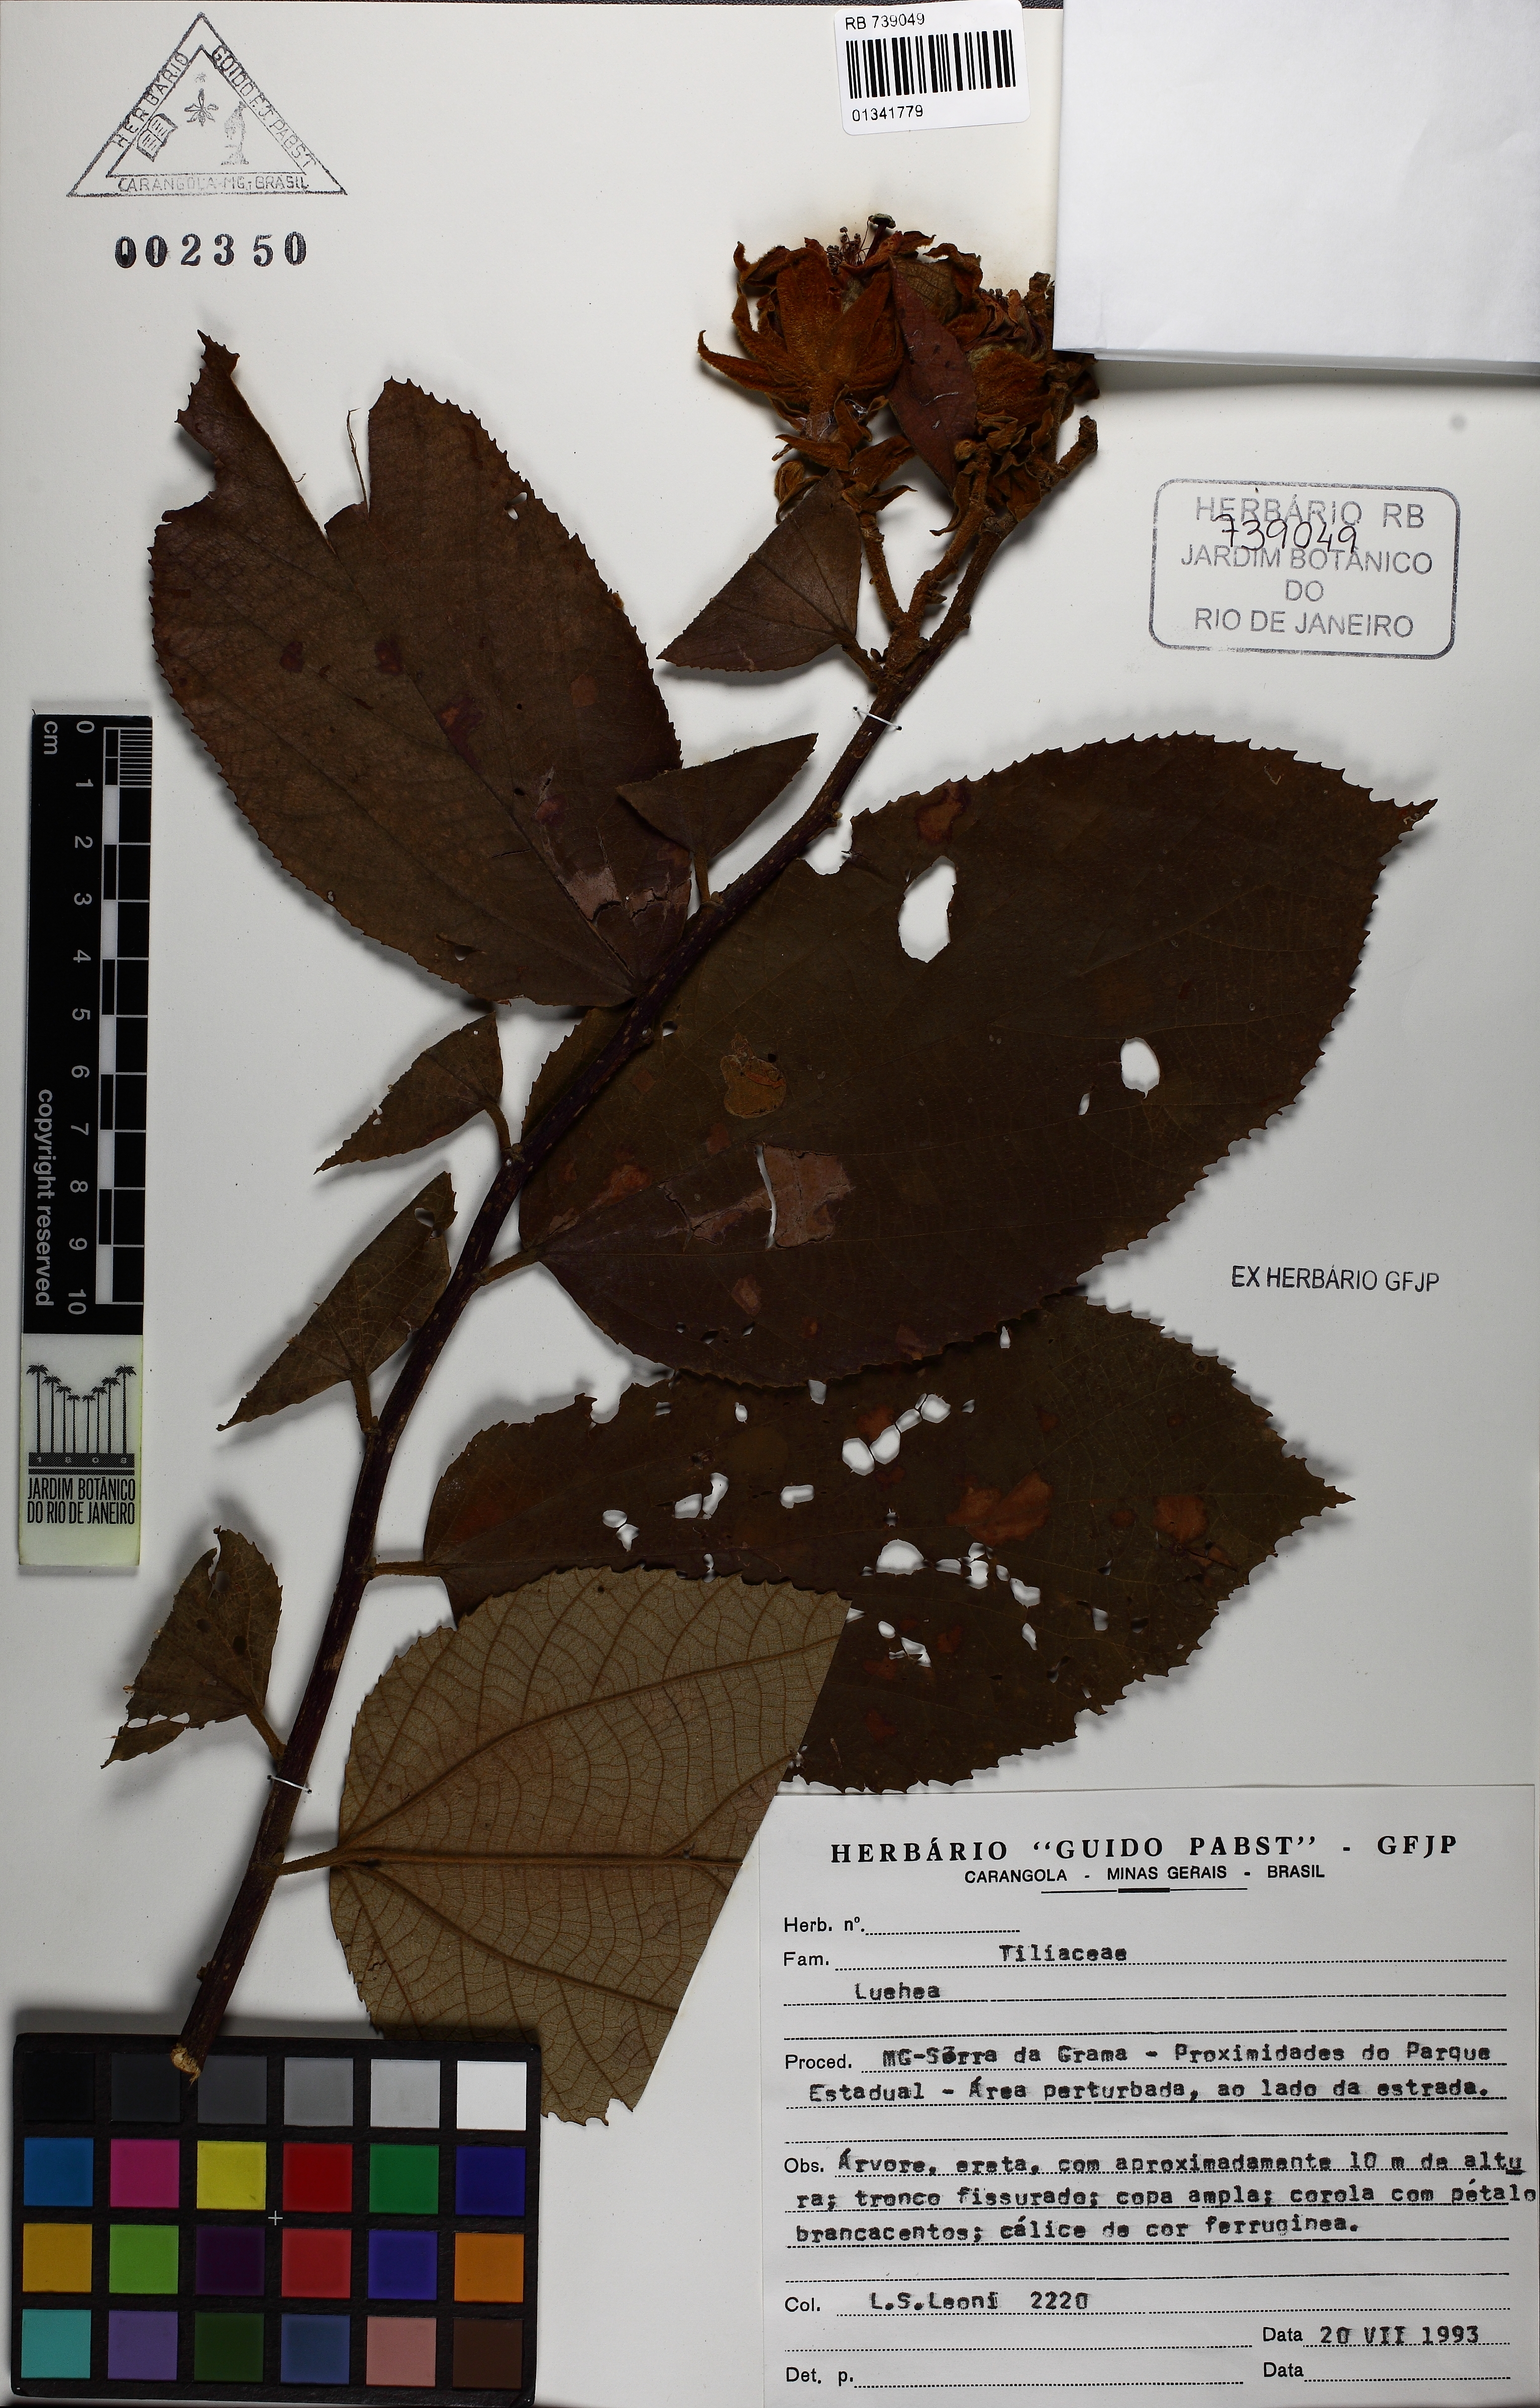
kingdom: Plantae
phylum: Tracheophyta
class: Magnoliopsida
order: Malvales
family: Malvaceae
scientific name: Malvaceae
